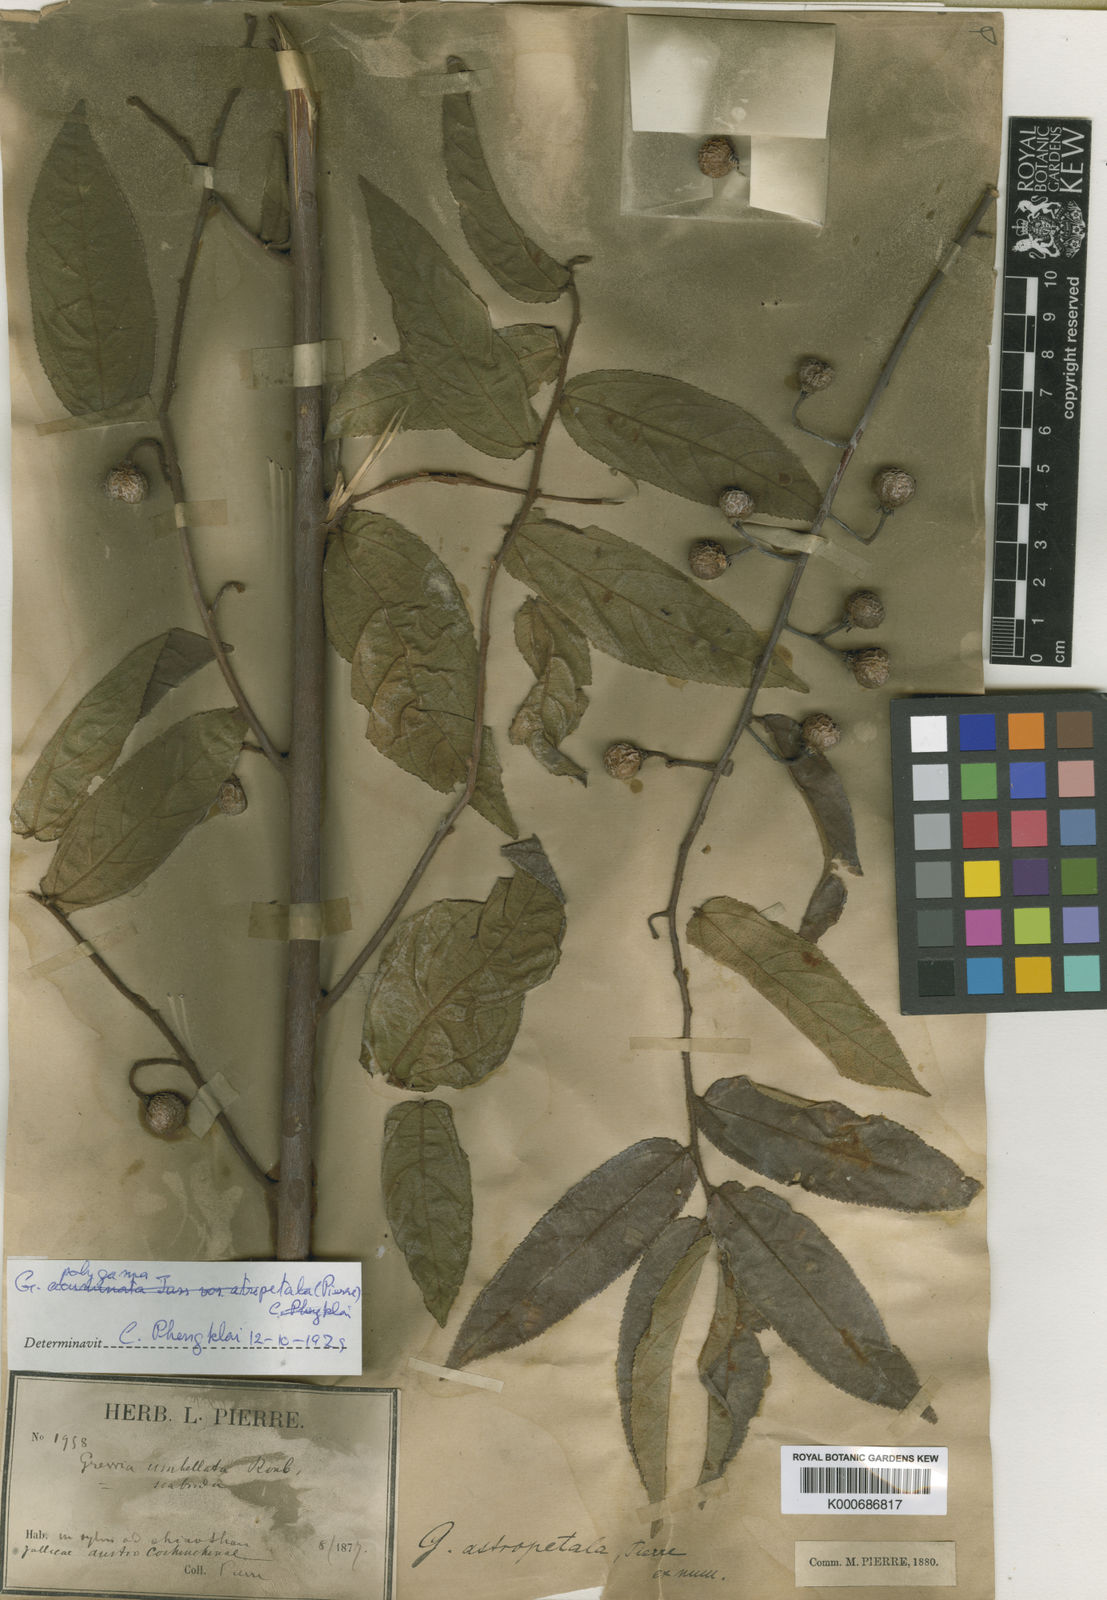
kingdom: Plantae
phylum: Tracheophyta
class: Magnoliopsida
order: Malvales
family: Malvaceae
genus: Grewia
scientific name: Grewia astropetala
